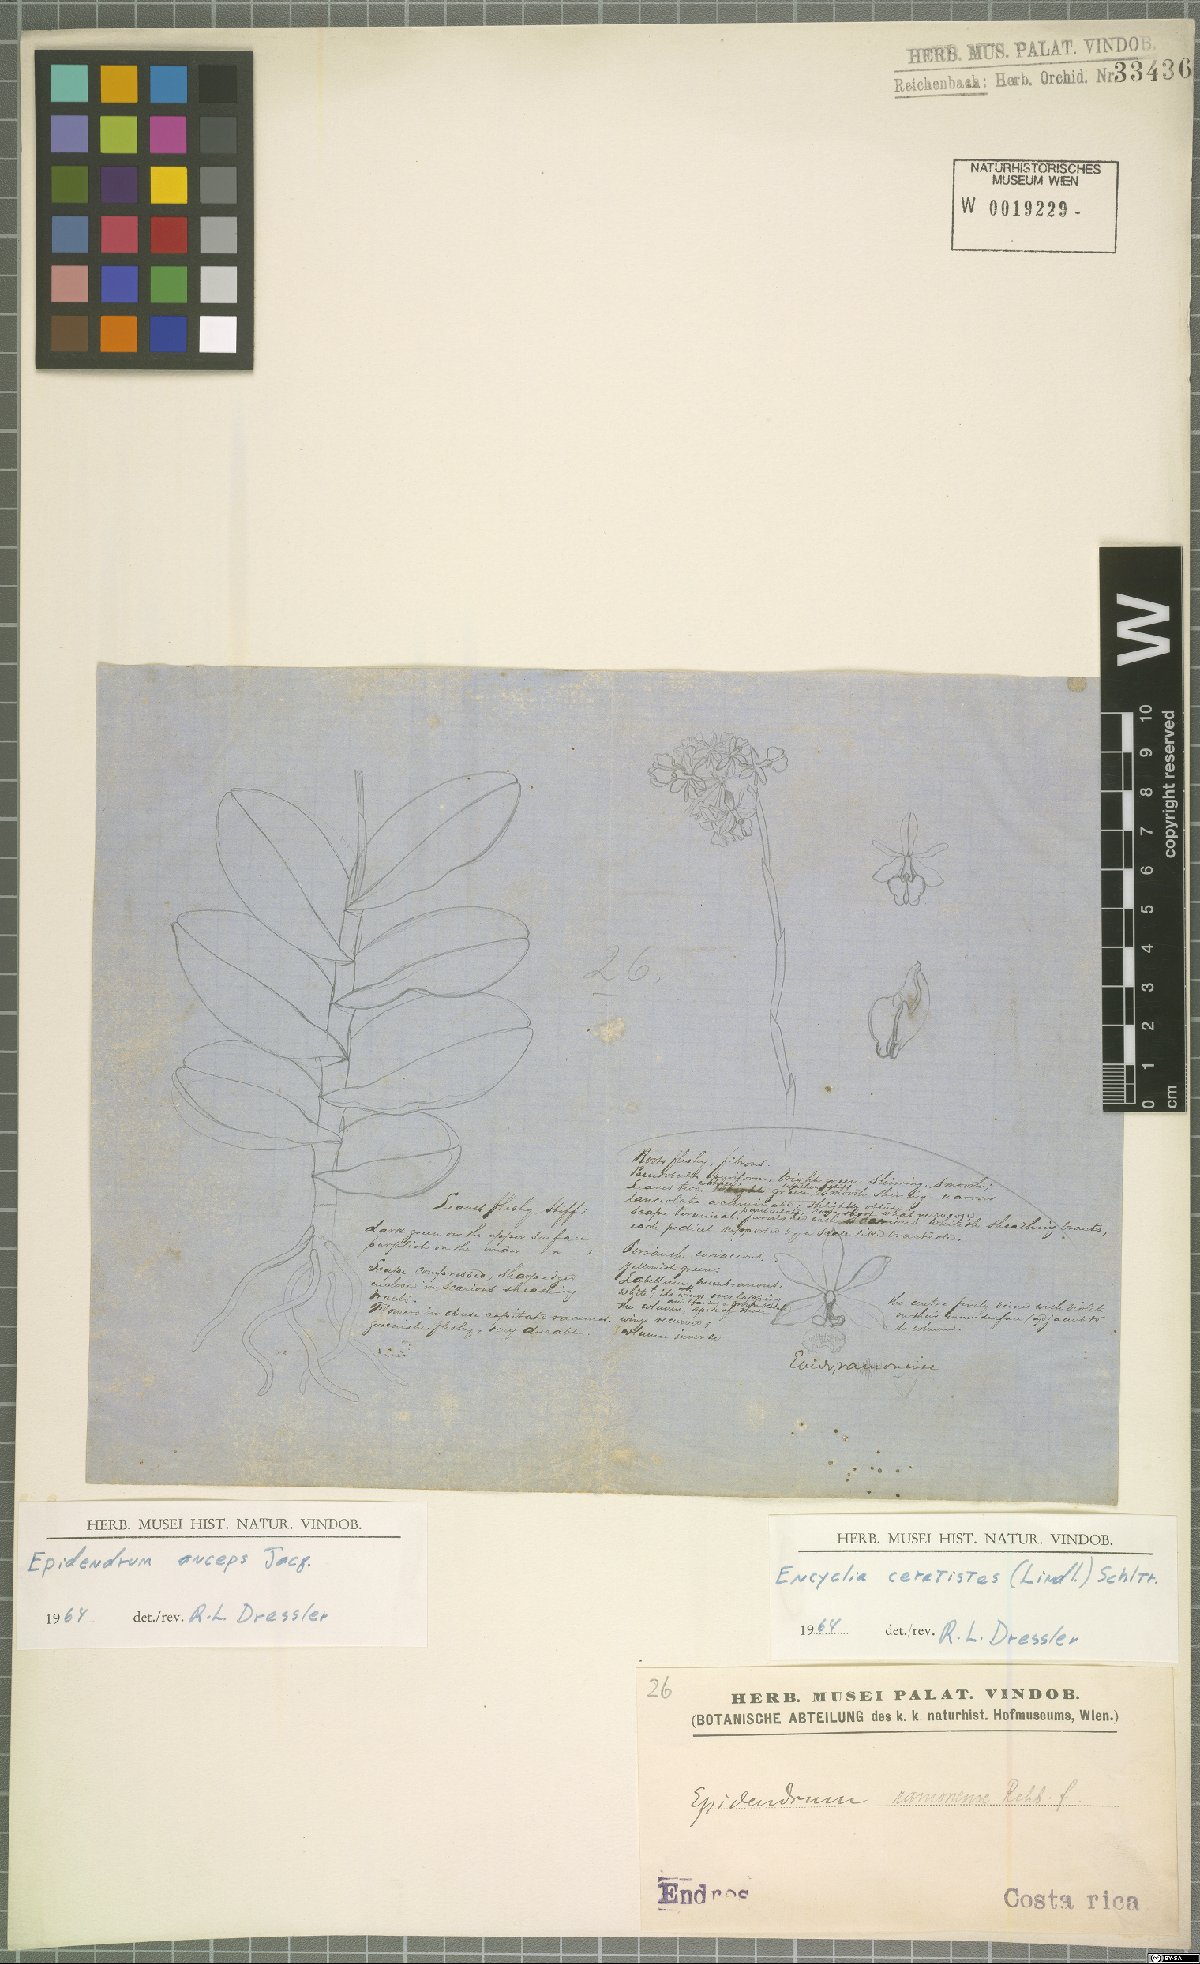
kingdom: Plantae
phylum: Tracheophyta
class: Liliopsida
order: Asparagales
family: Orchidaceae
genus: Epidendrum
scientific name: Epidendrum anceps
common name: Brown-flower butterfly orchid
